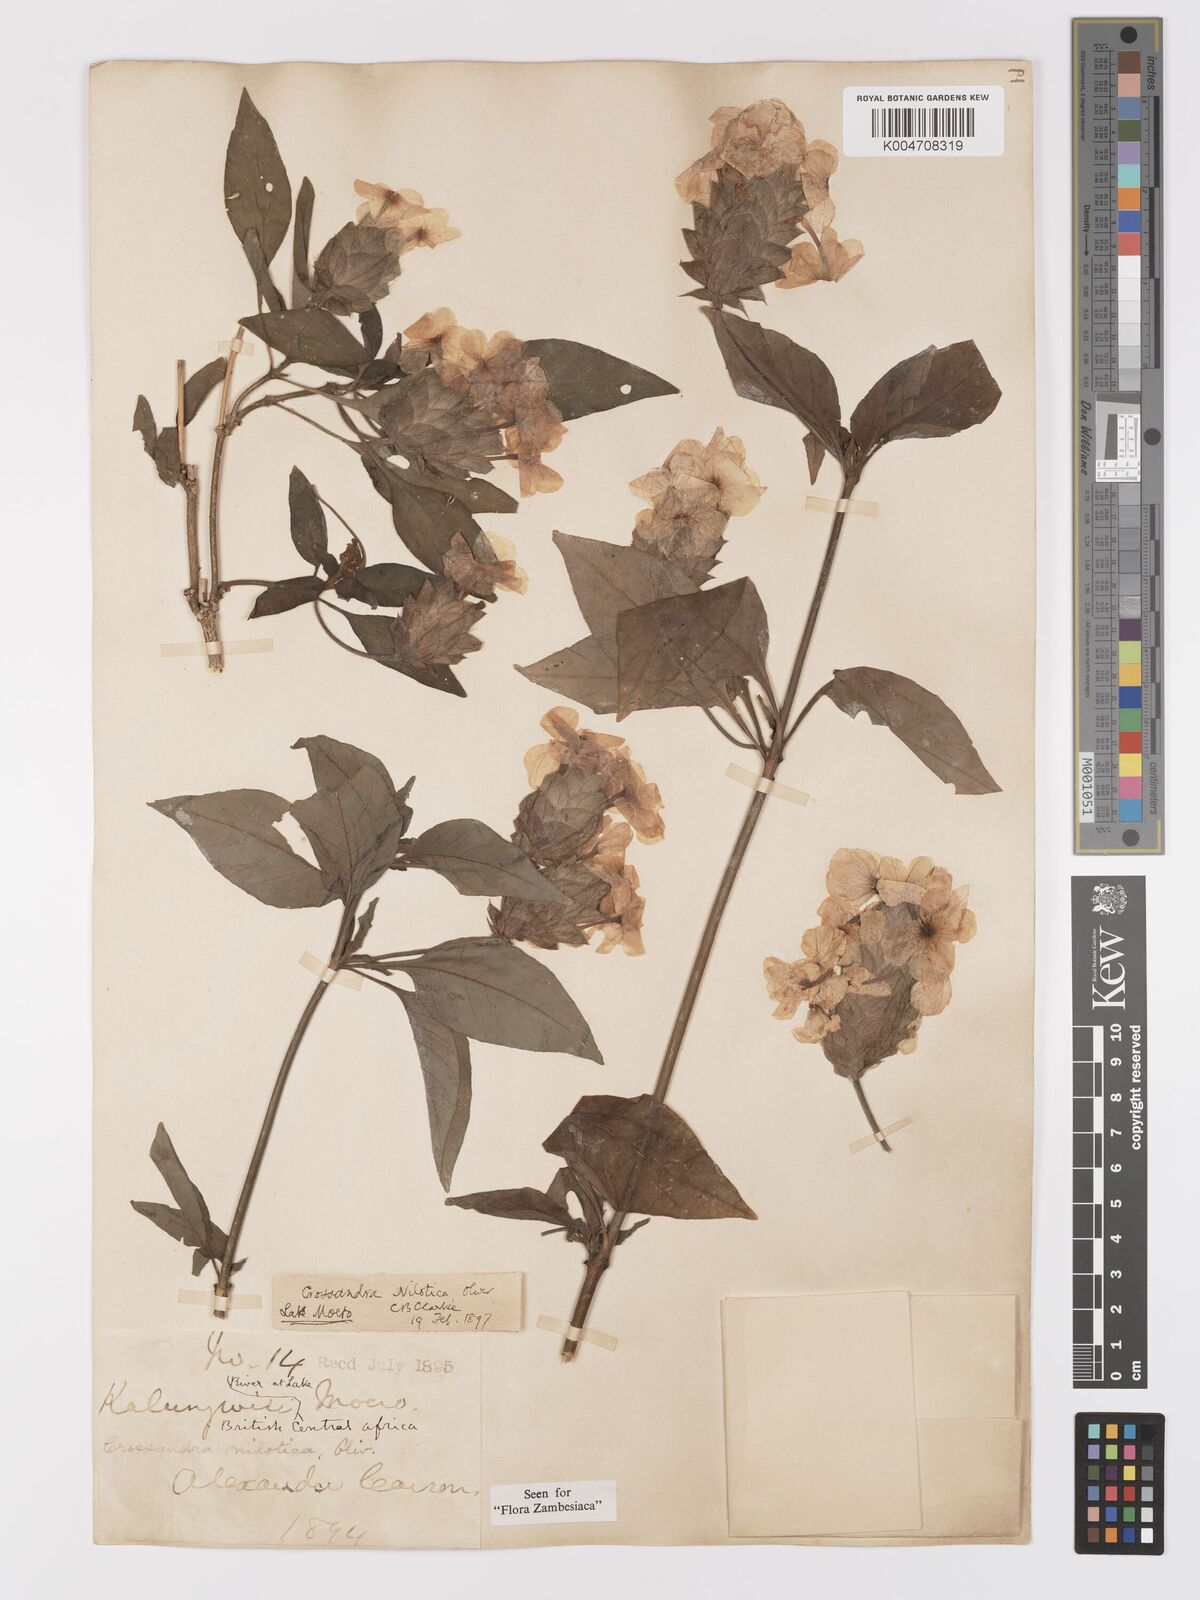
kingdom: Plantae
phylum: Tracheophyta
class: Magnoliopsida
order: Lamiales
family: Acanthaceae
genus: Crossandra
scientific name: Crossandra nilotica
